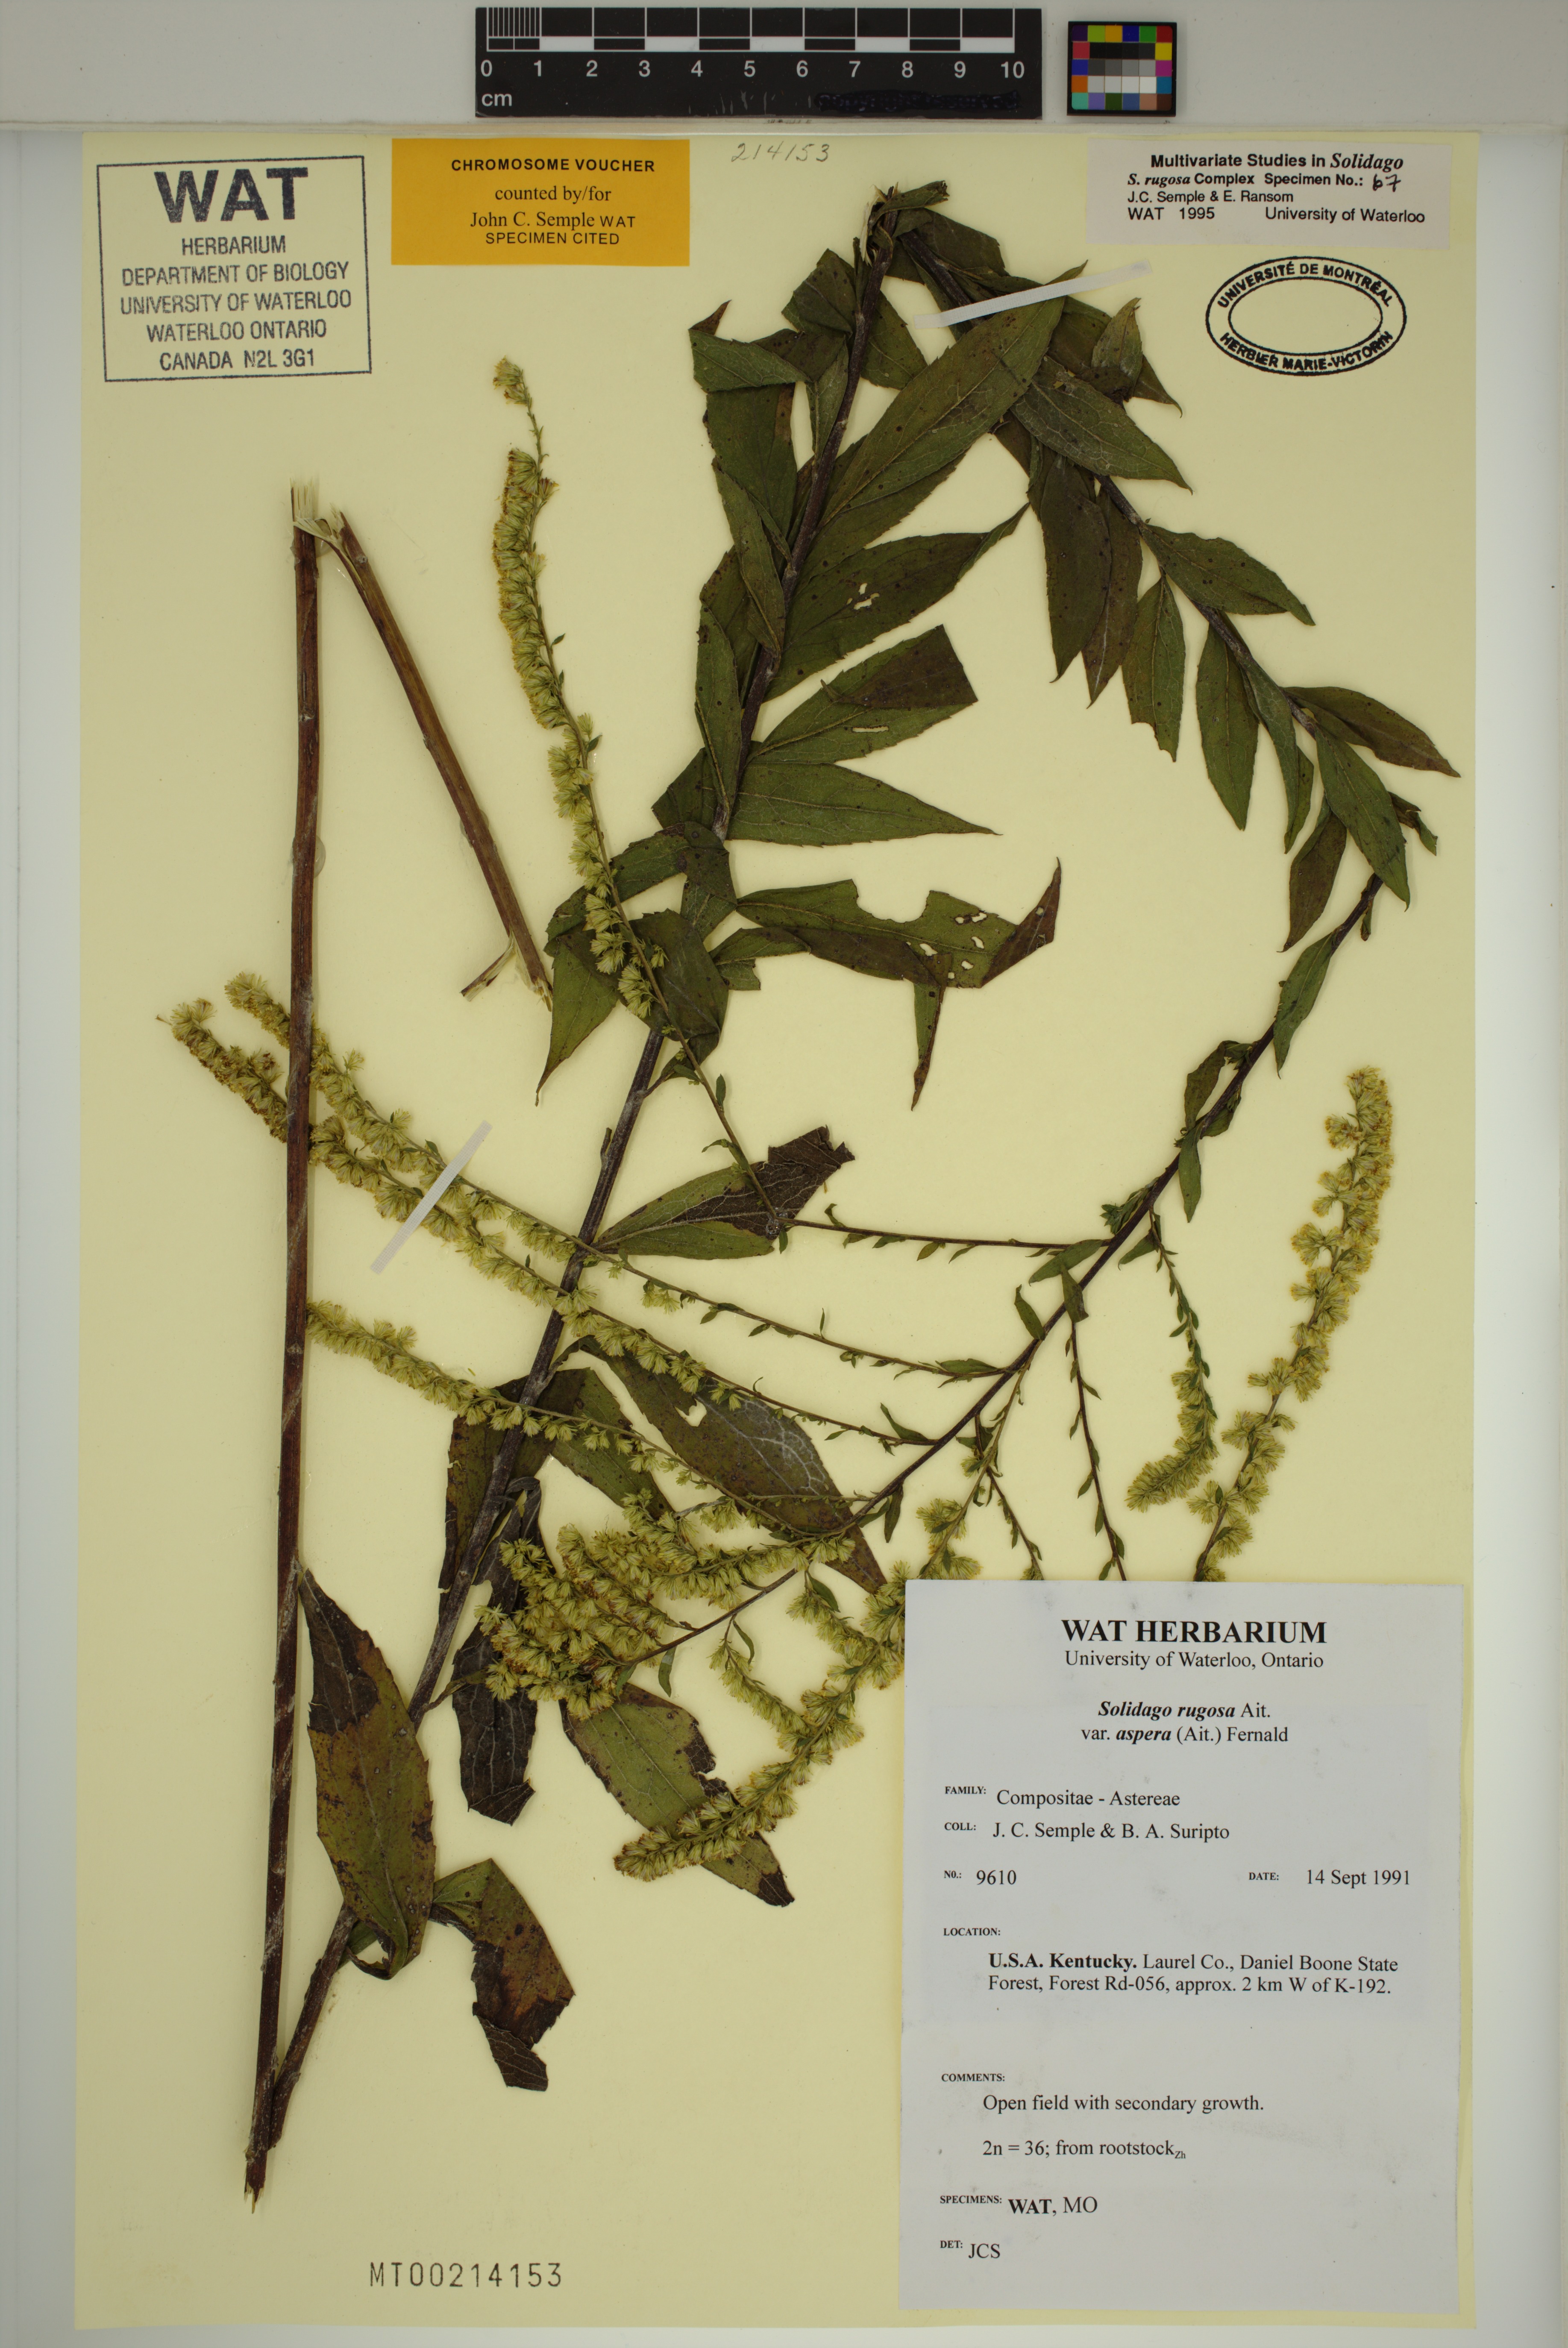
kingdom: Plantae
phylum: Tracheophyta
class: Magnoliopsida
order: Asterales
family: Asteraceae
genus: Solidago
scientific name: Solidago rugosa
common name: Rough-stemmed goldenrod
